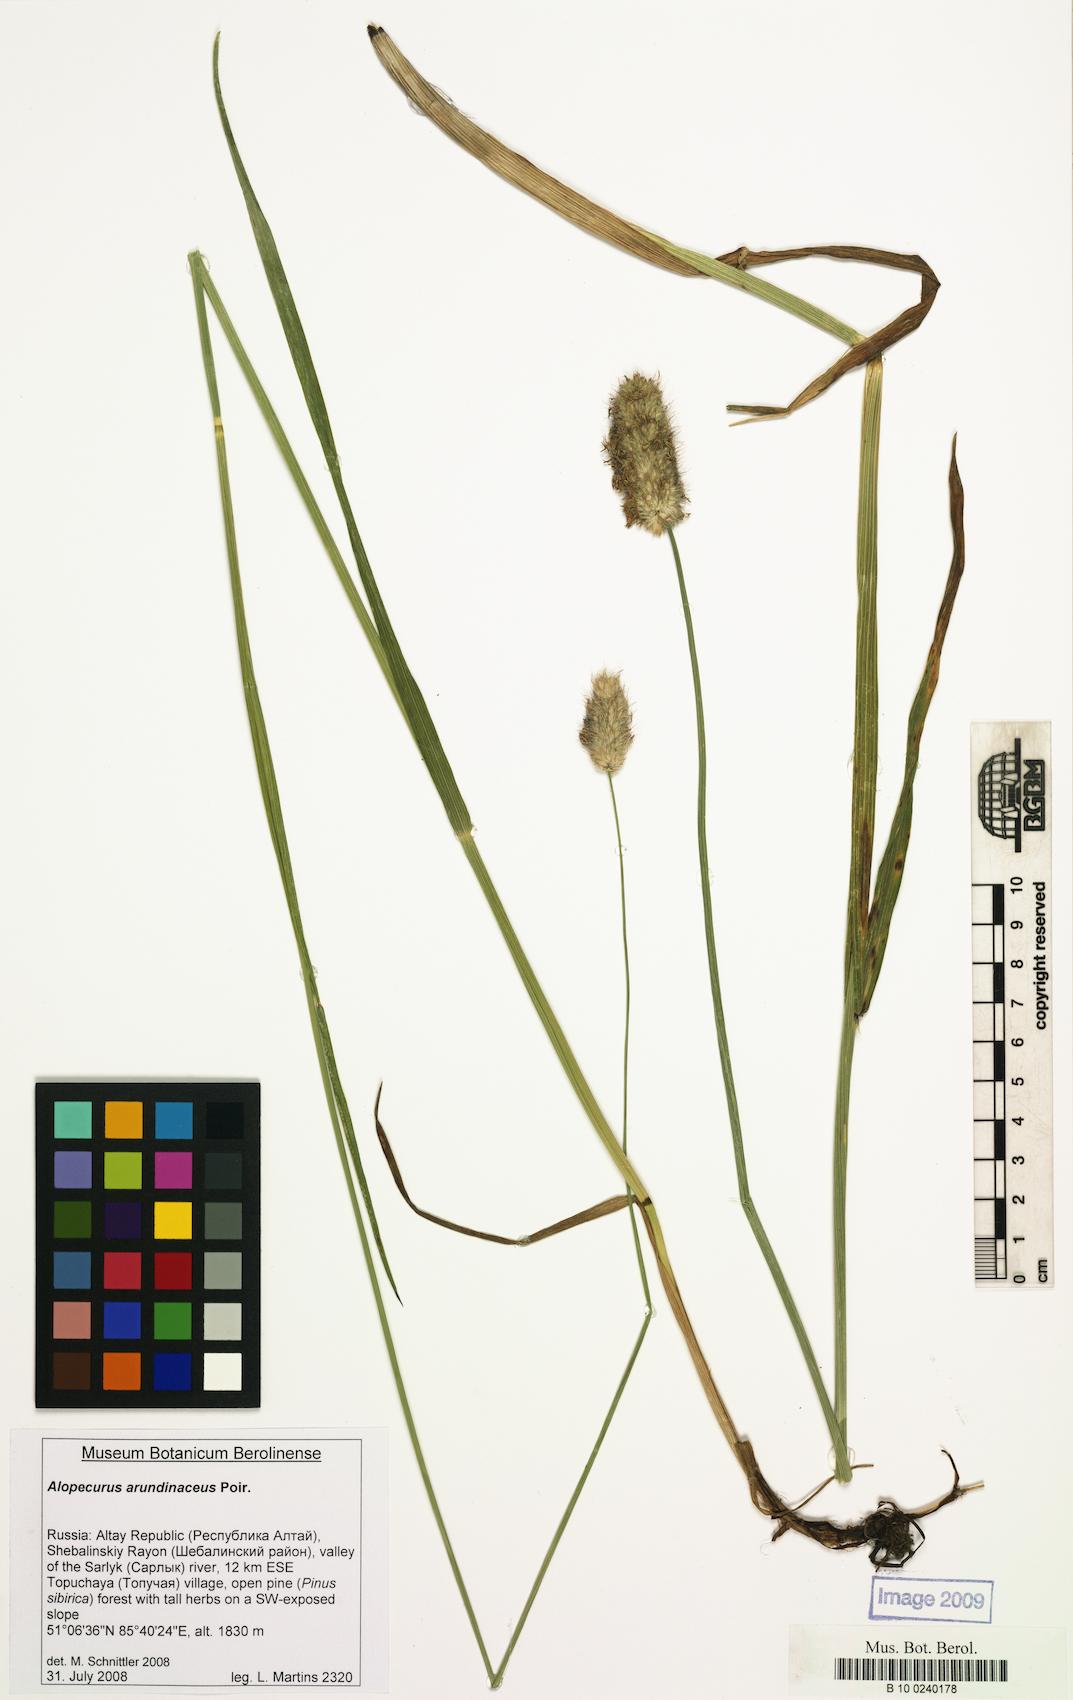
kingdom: Plantae
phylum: Tracheophyta
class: Liliopsida
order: Poales
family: Poaceae
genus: Alopecurus
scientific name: Alopecurus arundinaceus
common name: Creeping meadow foxtail
